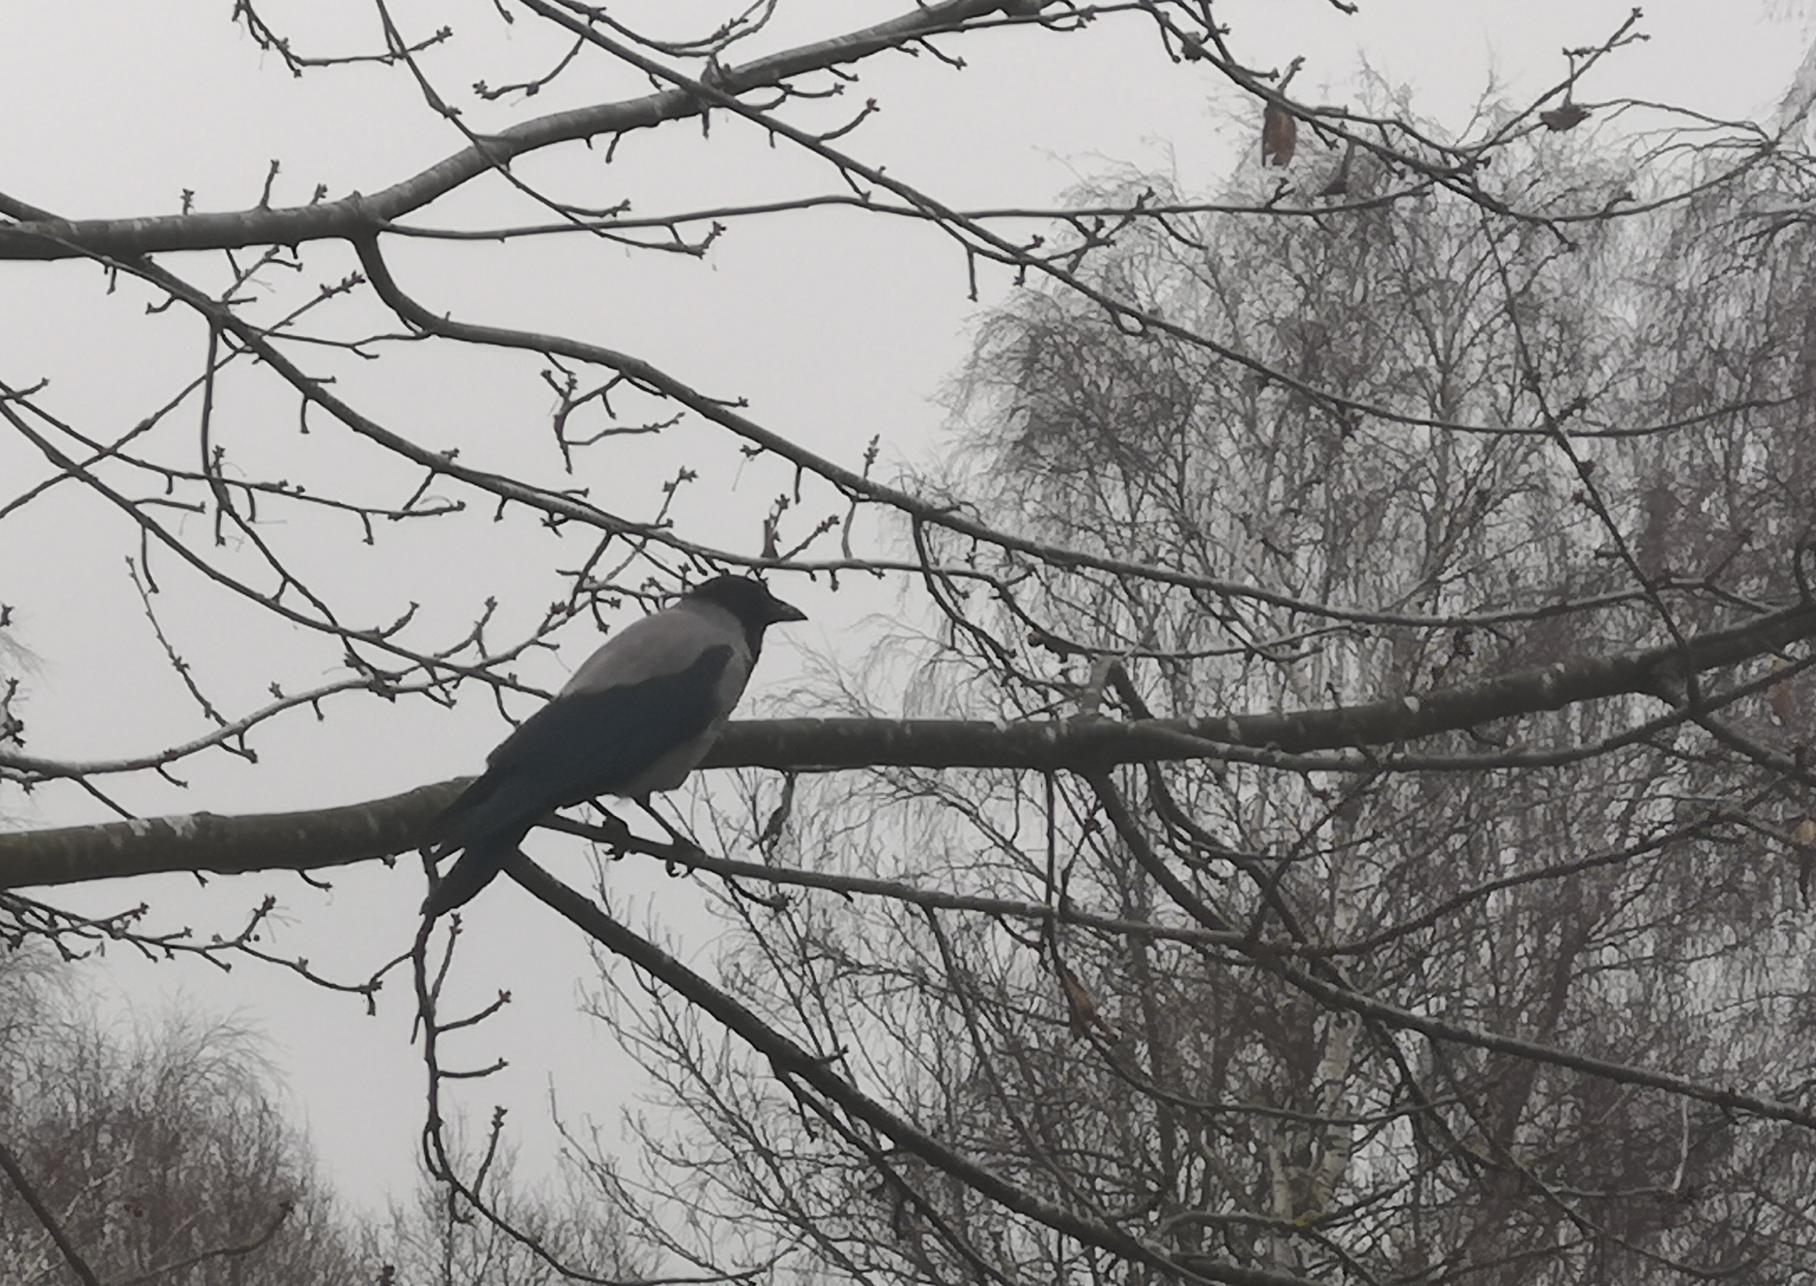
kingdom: Animalia
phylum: Chordata
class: Aves
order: Passeriformes
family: Corvidae
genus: Corvus
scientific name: Corvus cornix
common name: Gråkrage
